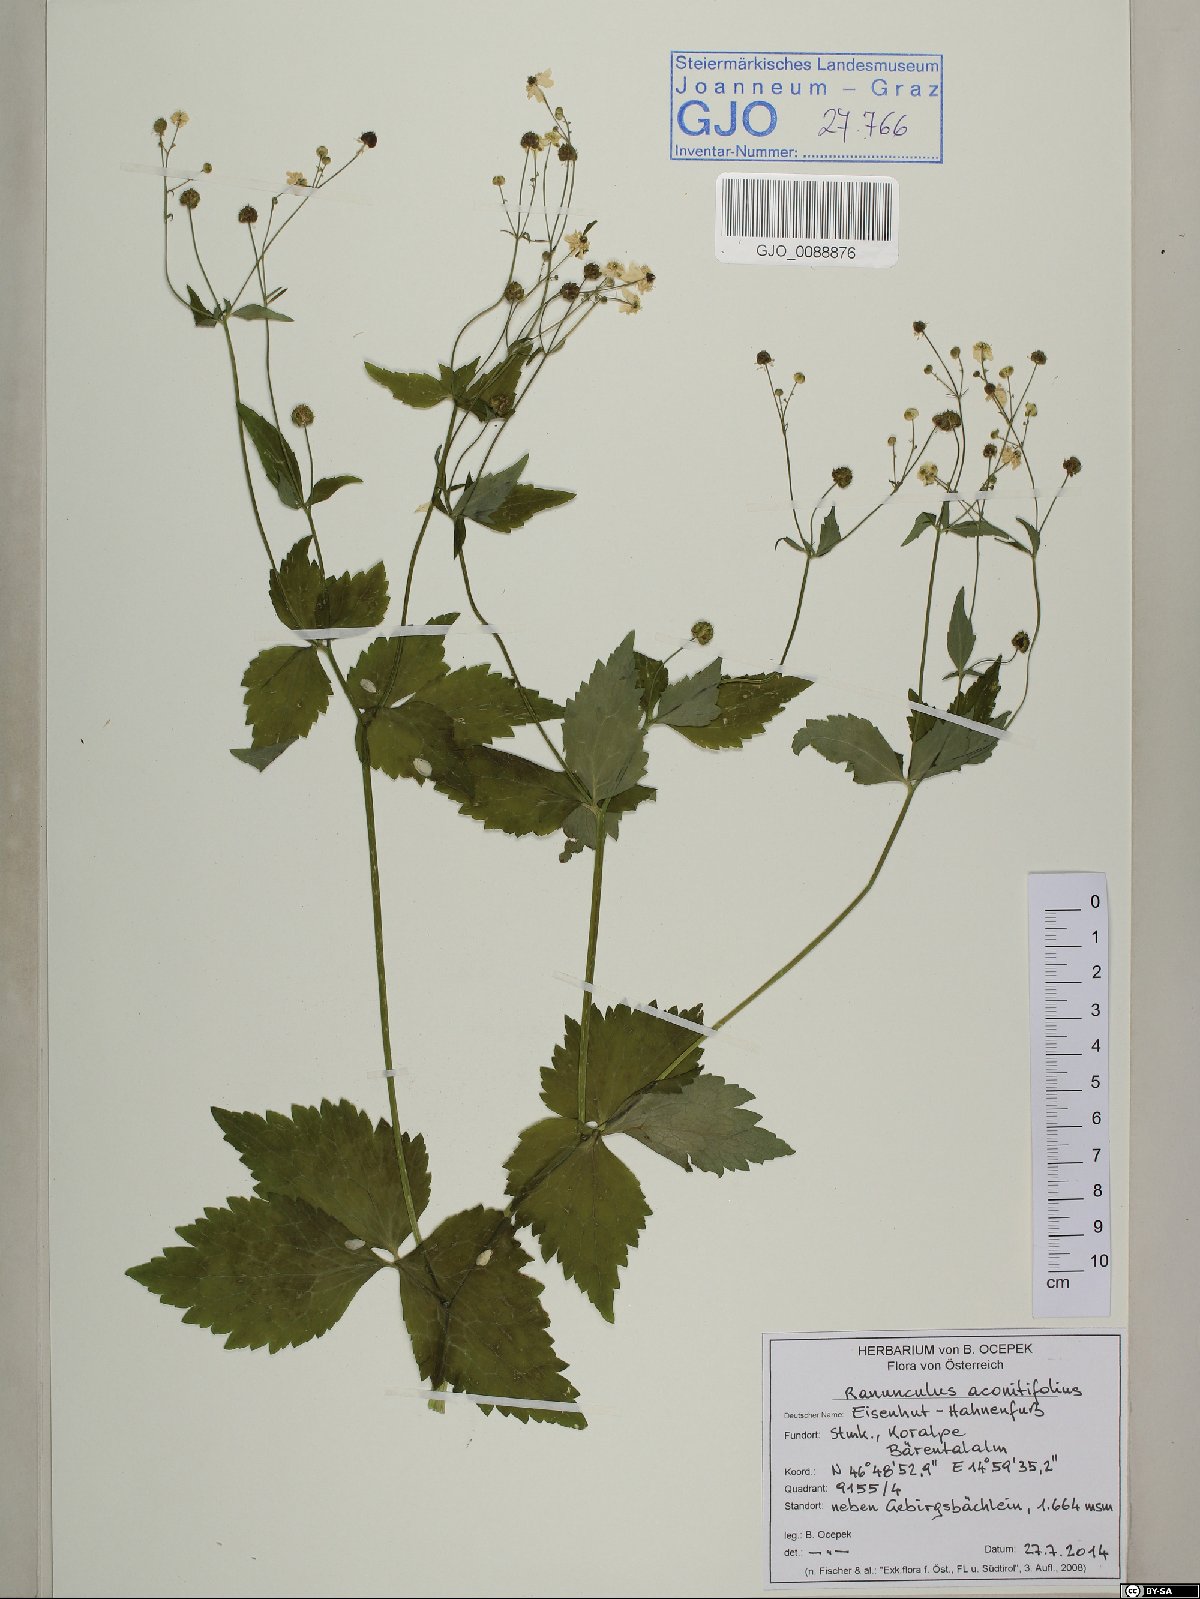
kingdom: Plantae
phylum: Tracheophyta
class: Magnoliopsida
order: Ranunculales
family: Ranunculaceae
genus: Ranunculus
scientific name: Ranunculus aconitifolius
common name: Aconite-leaved buttercup
